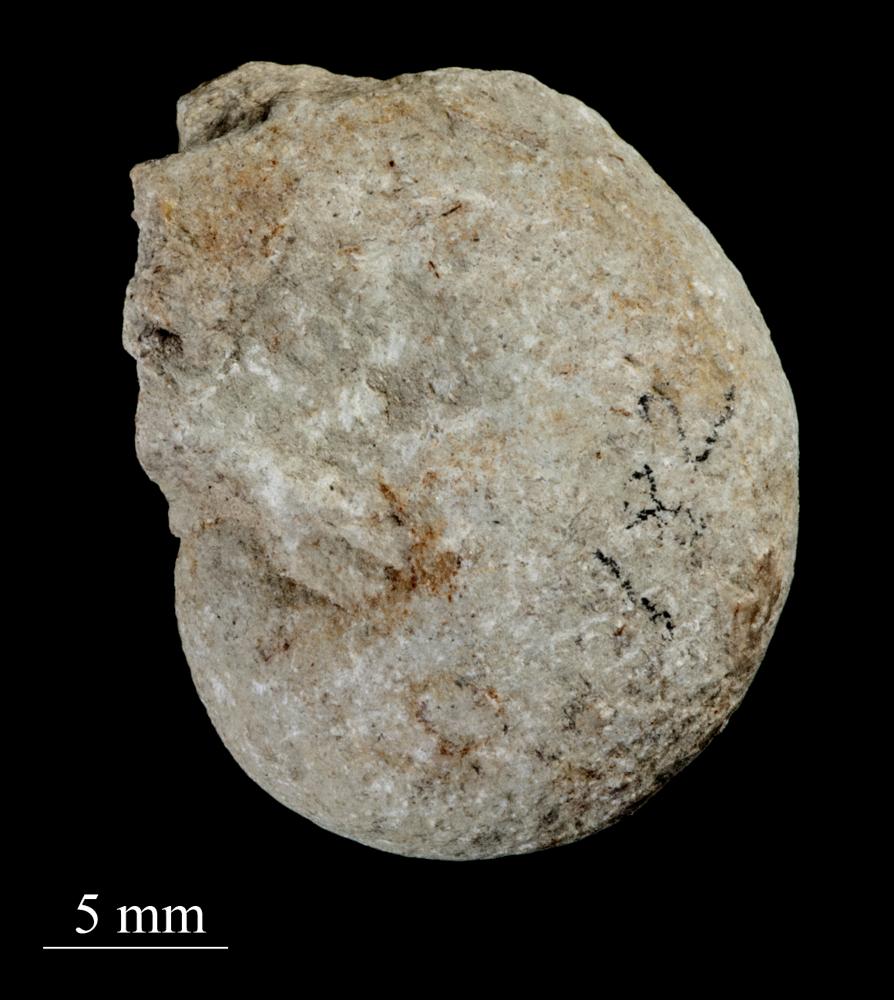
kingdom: Animalia
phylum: Mollusca
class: Gastropoda
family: Sinuitidae
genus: Sinuites
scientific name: Sinuites bilobatus
